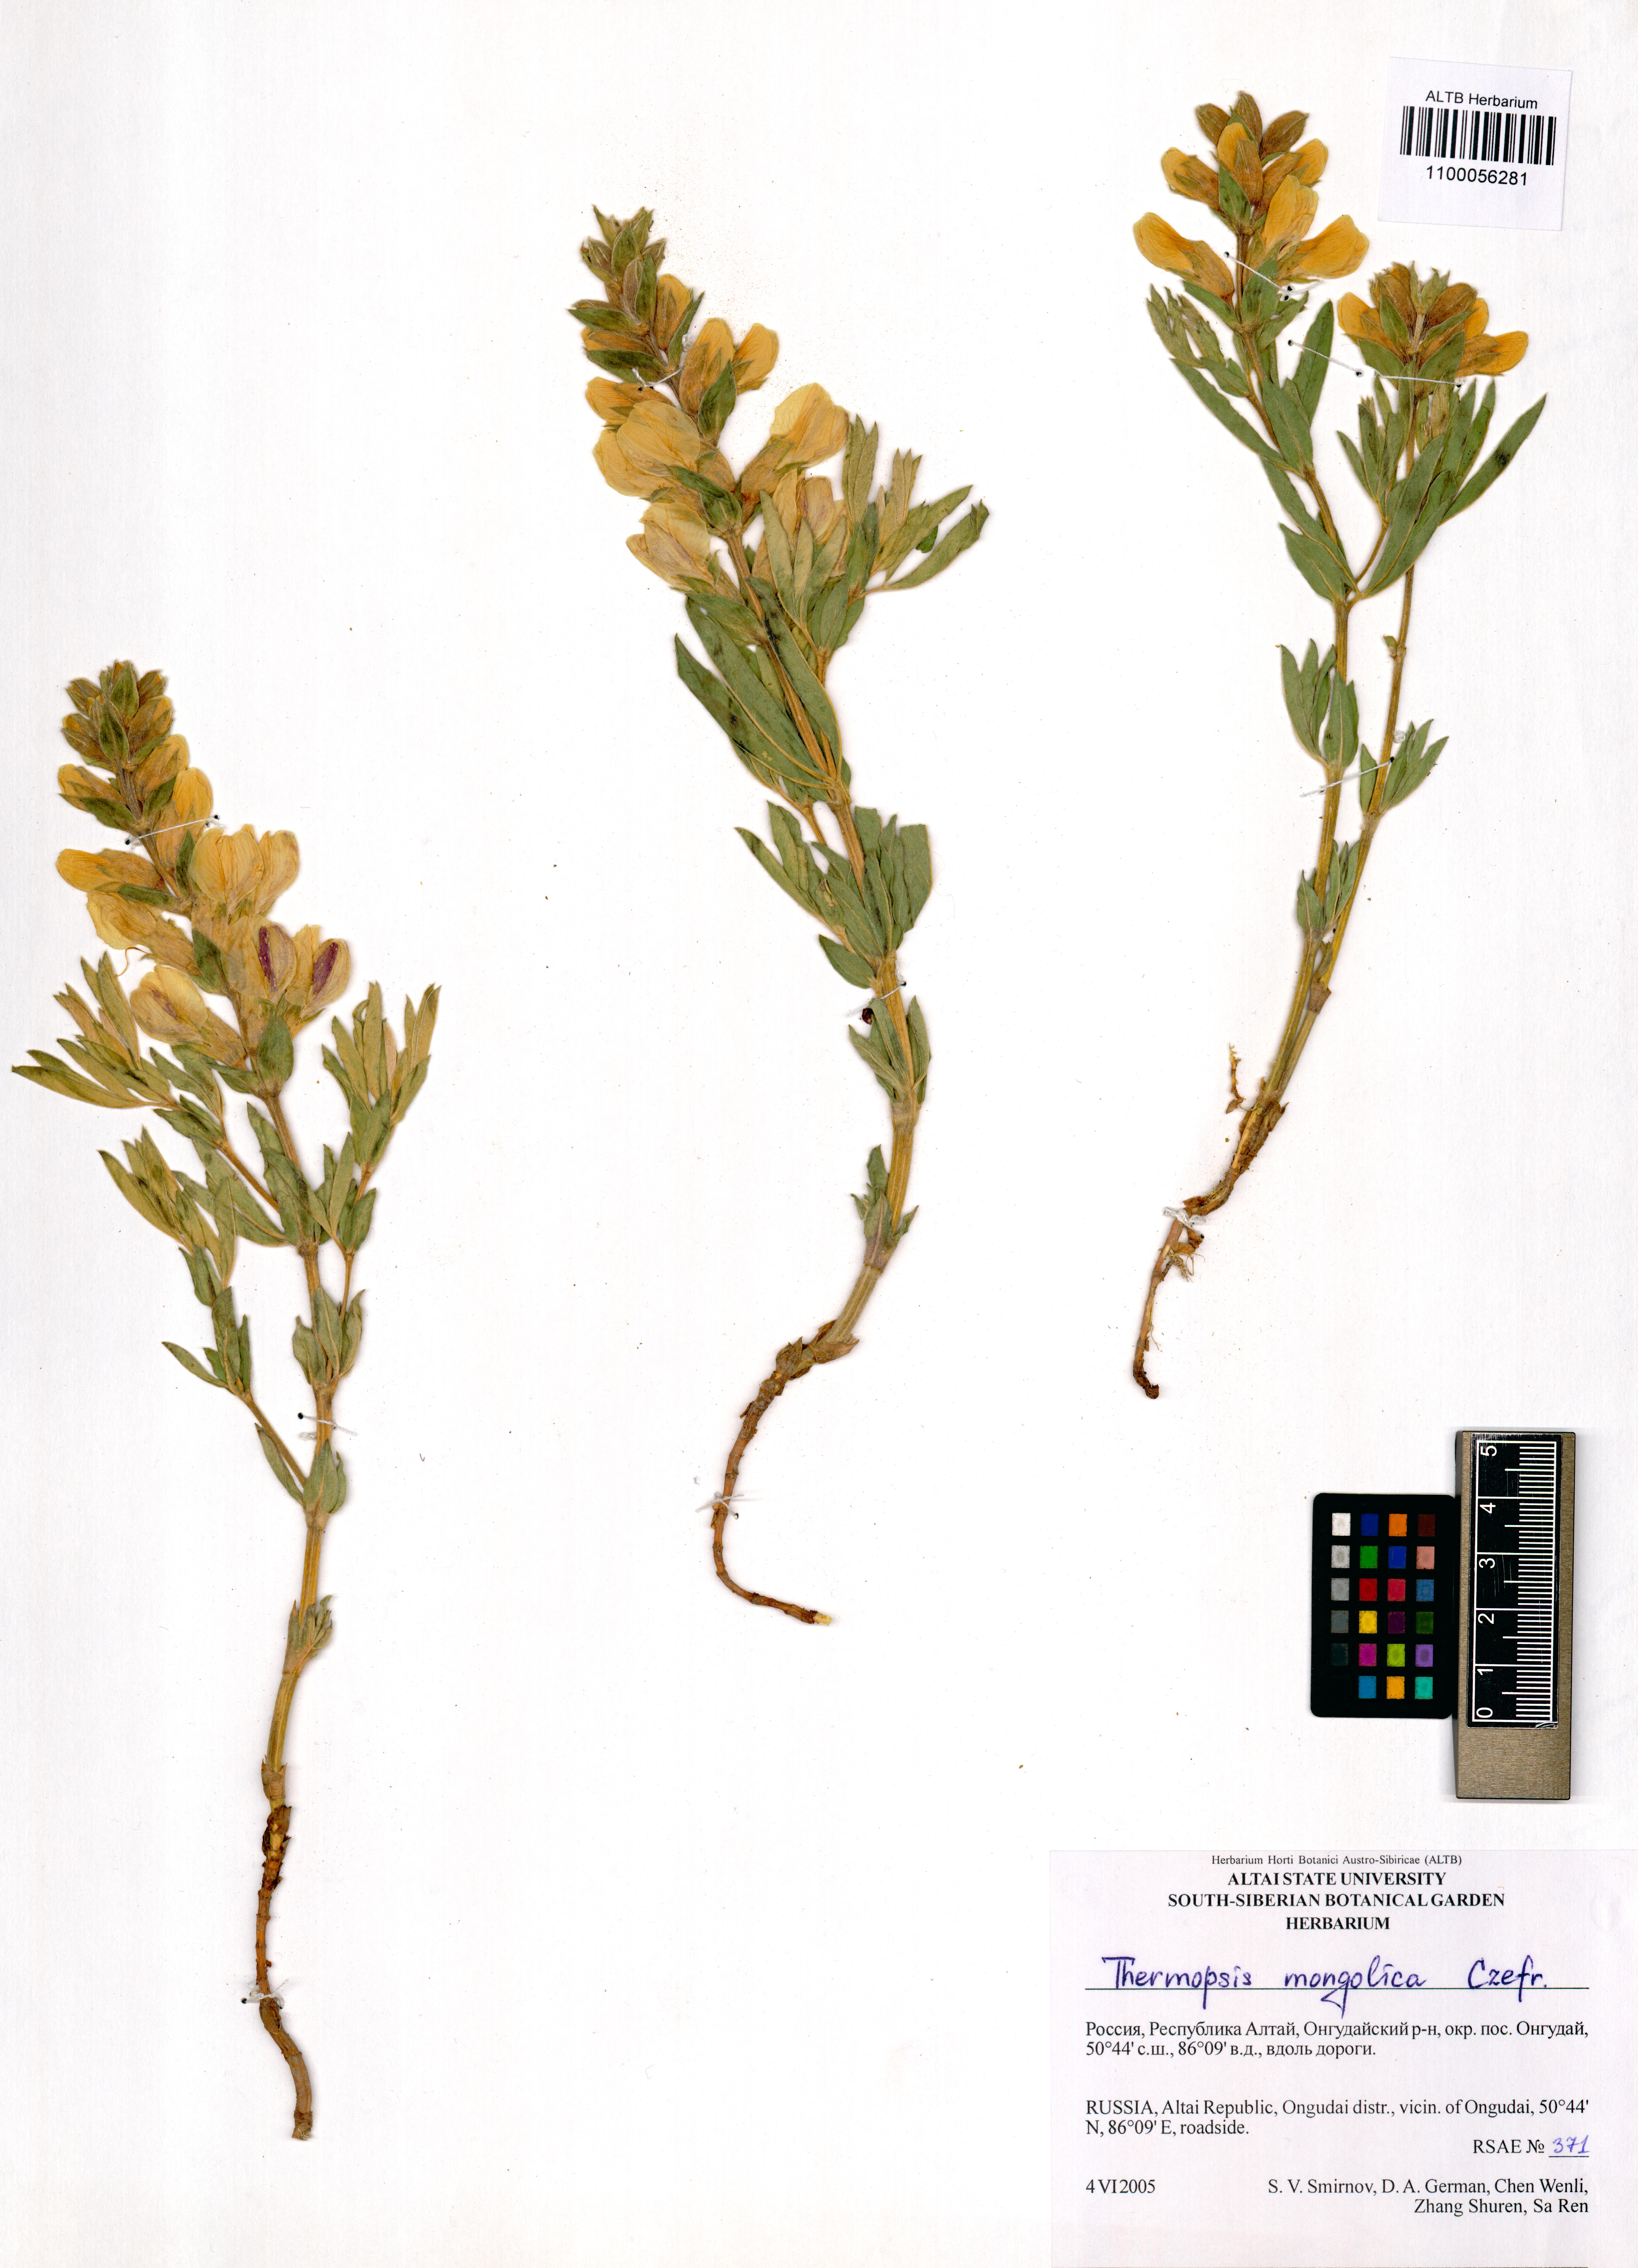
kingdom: Plantae
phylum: Tracheophyta
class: Magnoliopsida
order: Fabales
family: Fabaceae
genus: Thermopsis
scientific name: Thermopsis mongolica
